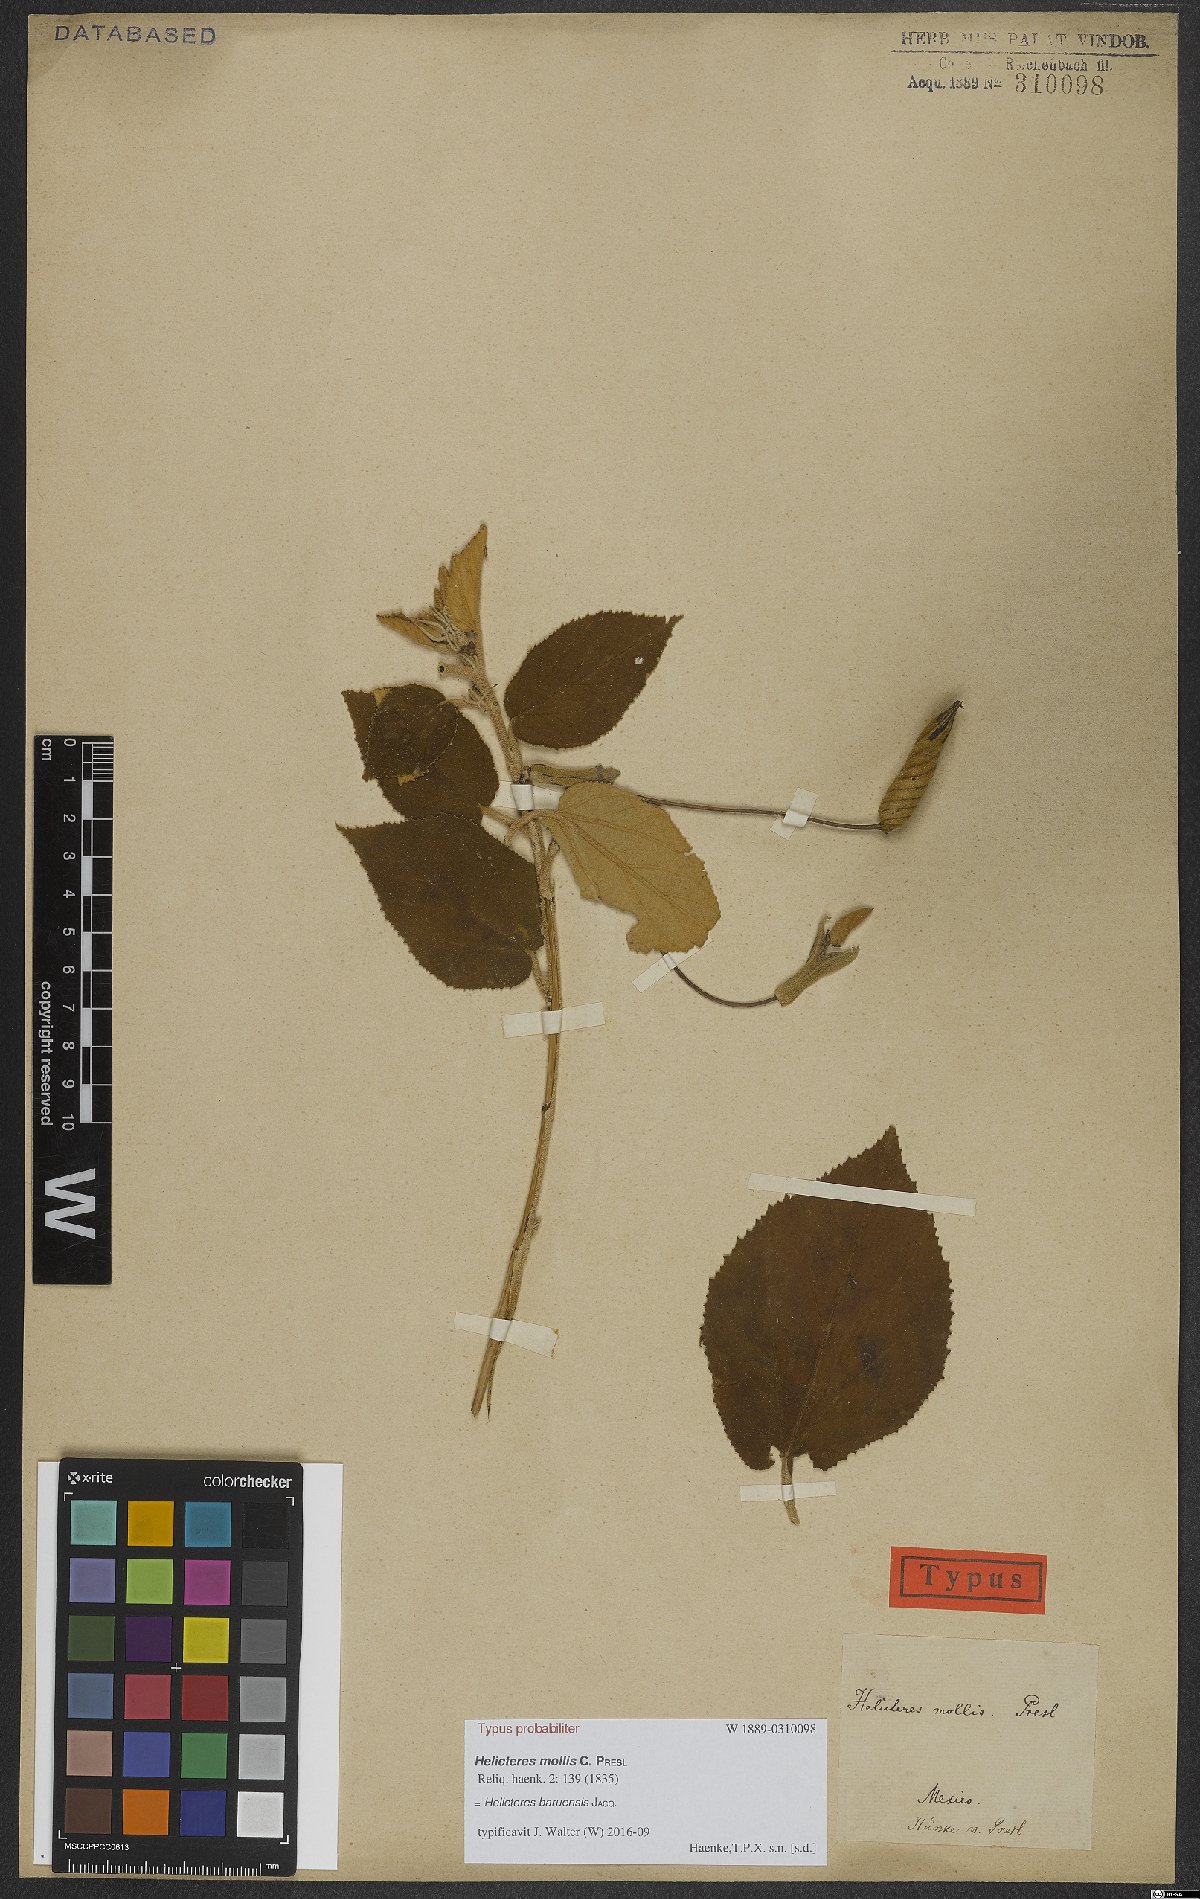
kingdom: Plantae
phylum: Tracheophyta
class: Magnoliopsida
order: Malvales
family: Malvaceae
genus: Helicteres
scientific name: Helicteres baruensis
